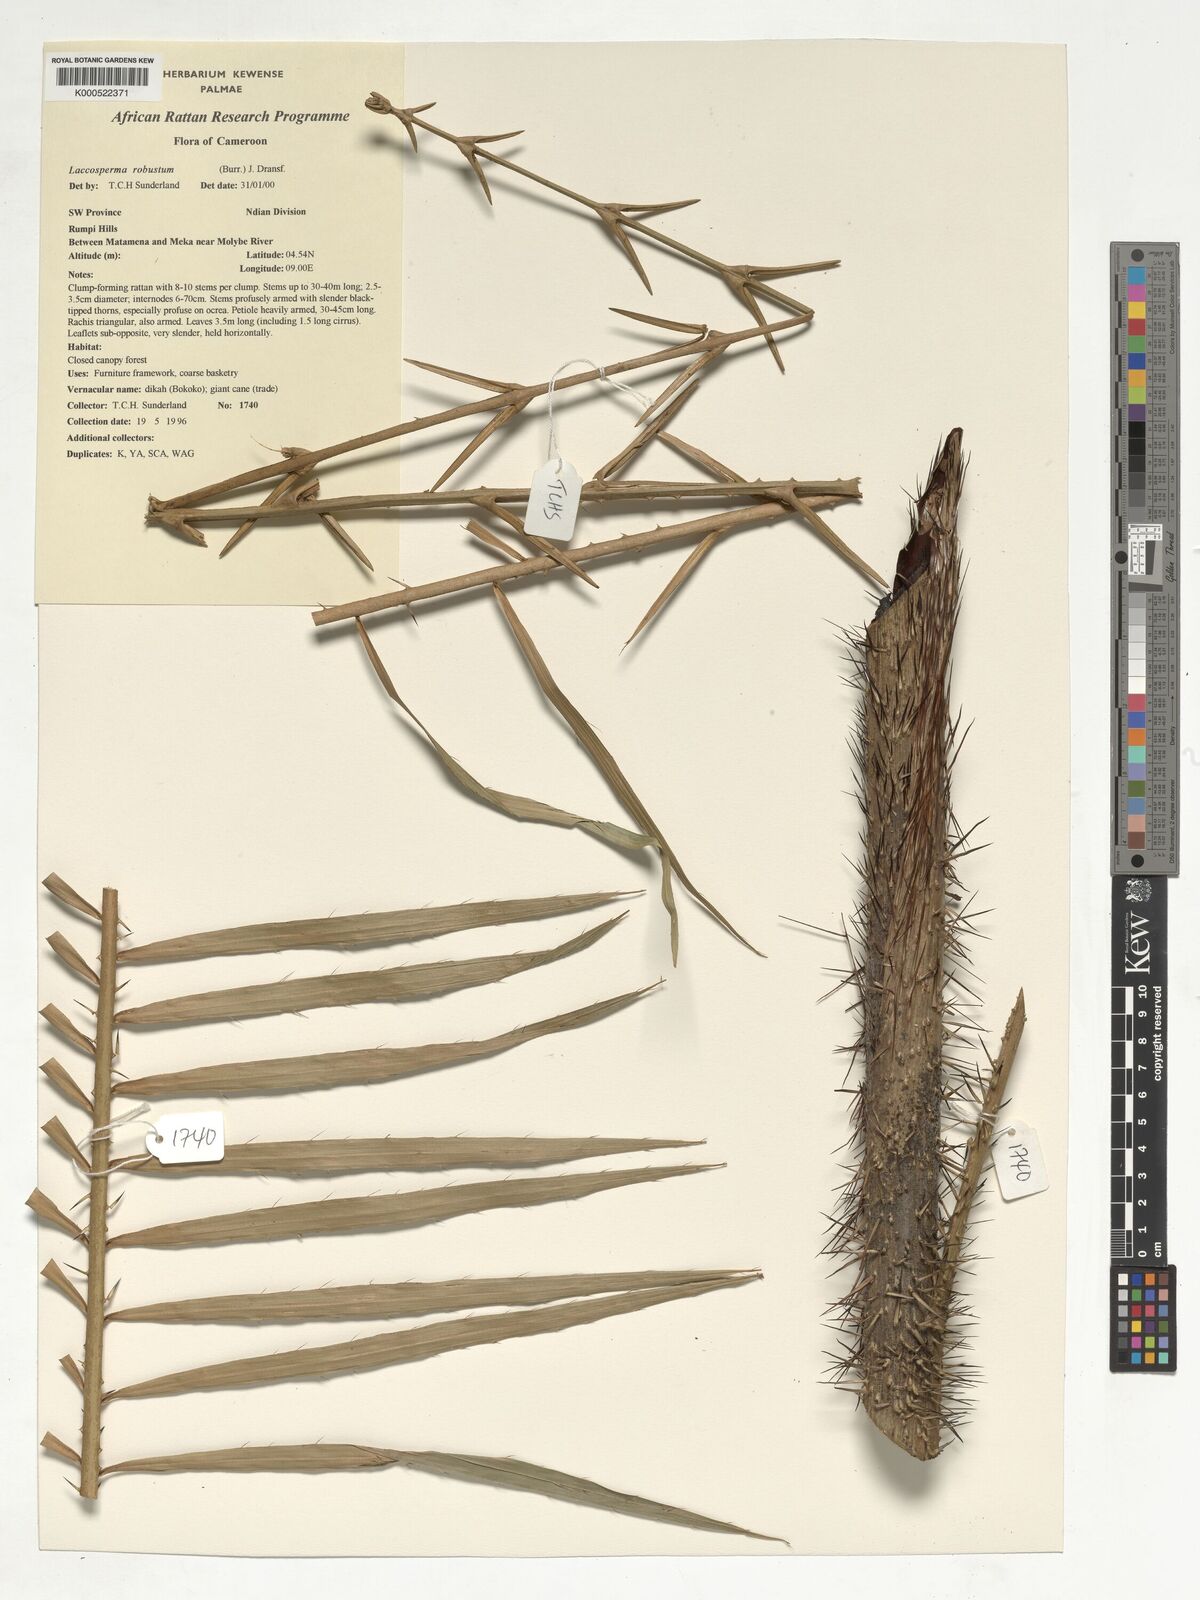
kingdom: Plantae
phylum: Tracheophyta
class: Liliopsida
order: Arecales
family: Arecaceae
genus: Laccosperma
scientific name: Laccosperma robustum
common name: Rattan
